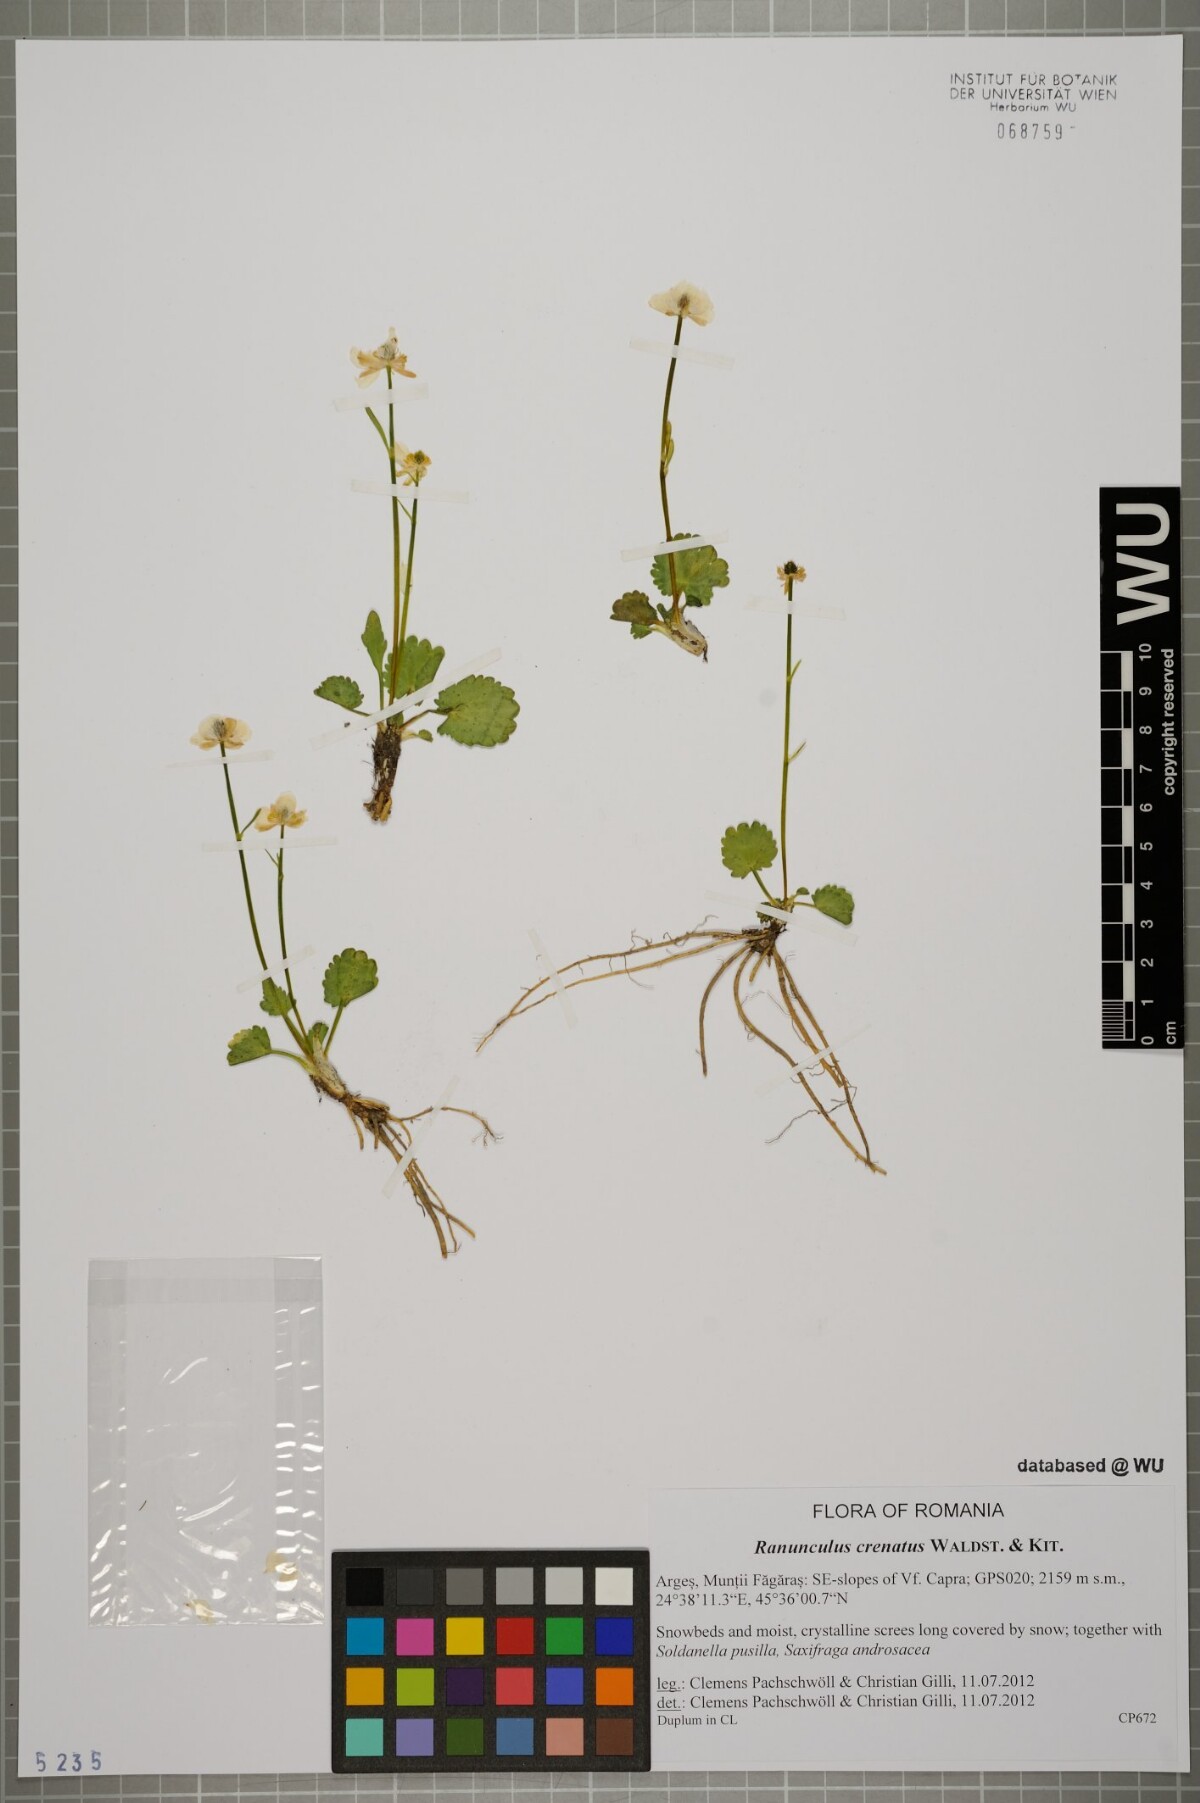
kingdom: Plantae
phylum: Tracheophyta
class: Magnoliopsida
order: Ranunculales
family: Ranunculaceae
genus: Ranunculus
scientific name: Ranunculus crenatus
